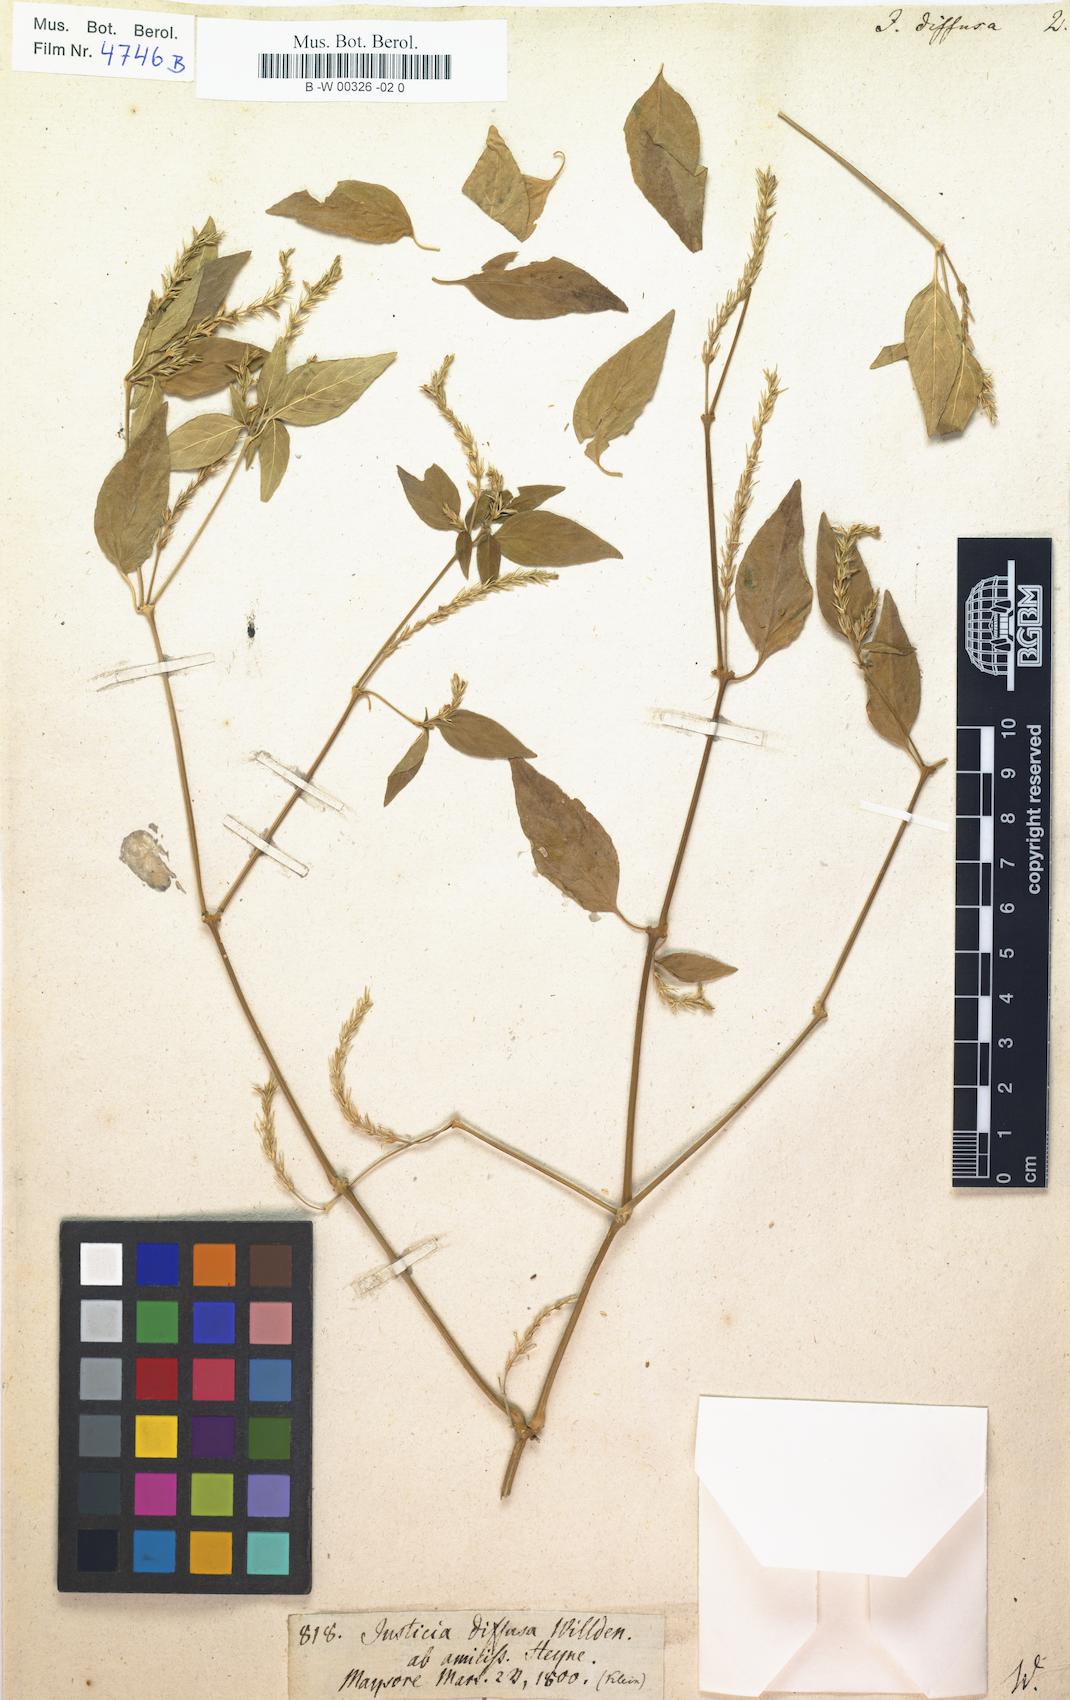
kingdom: Plantae
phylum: Tracheophyta
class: Magnoliopsida
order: Lamiales
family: Acanthaceae
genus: Rostellularia
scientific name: Rostellularia diffusa
